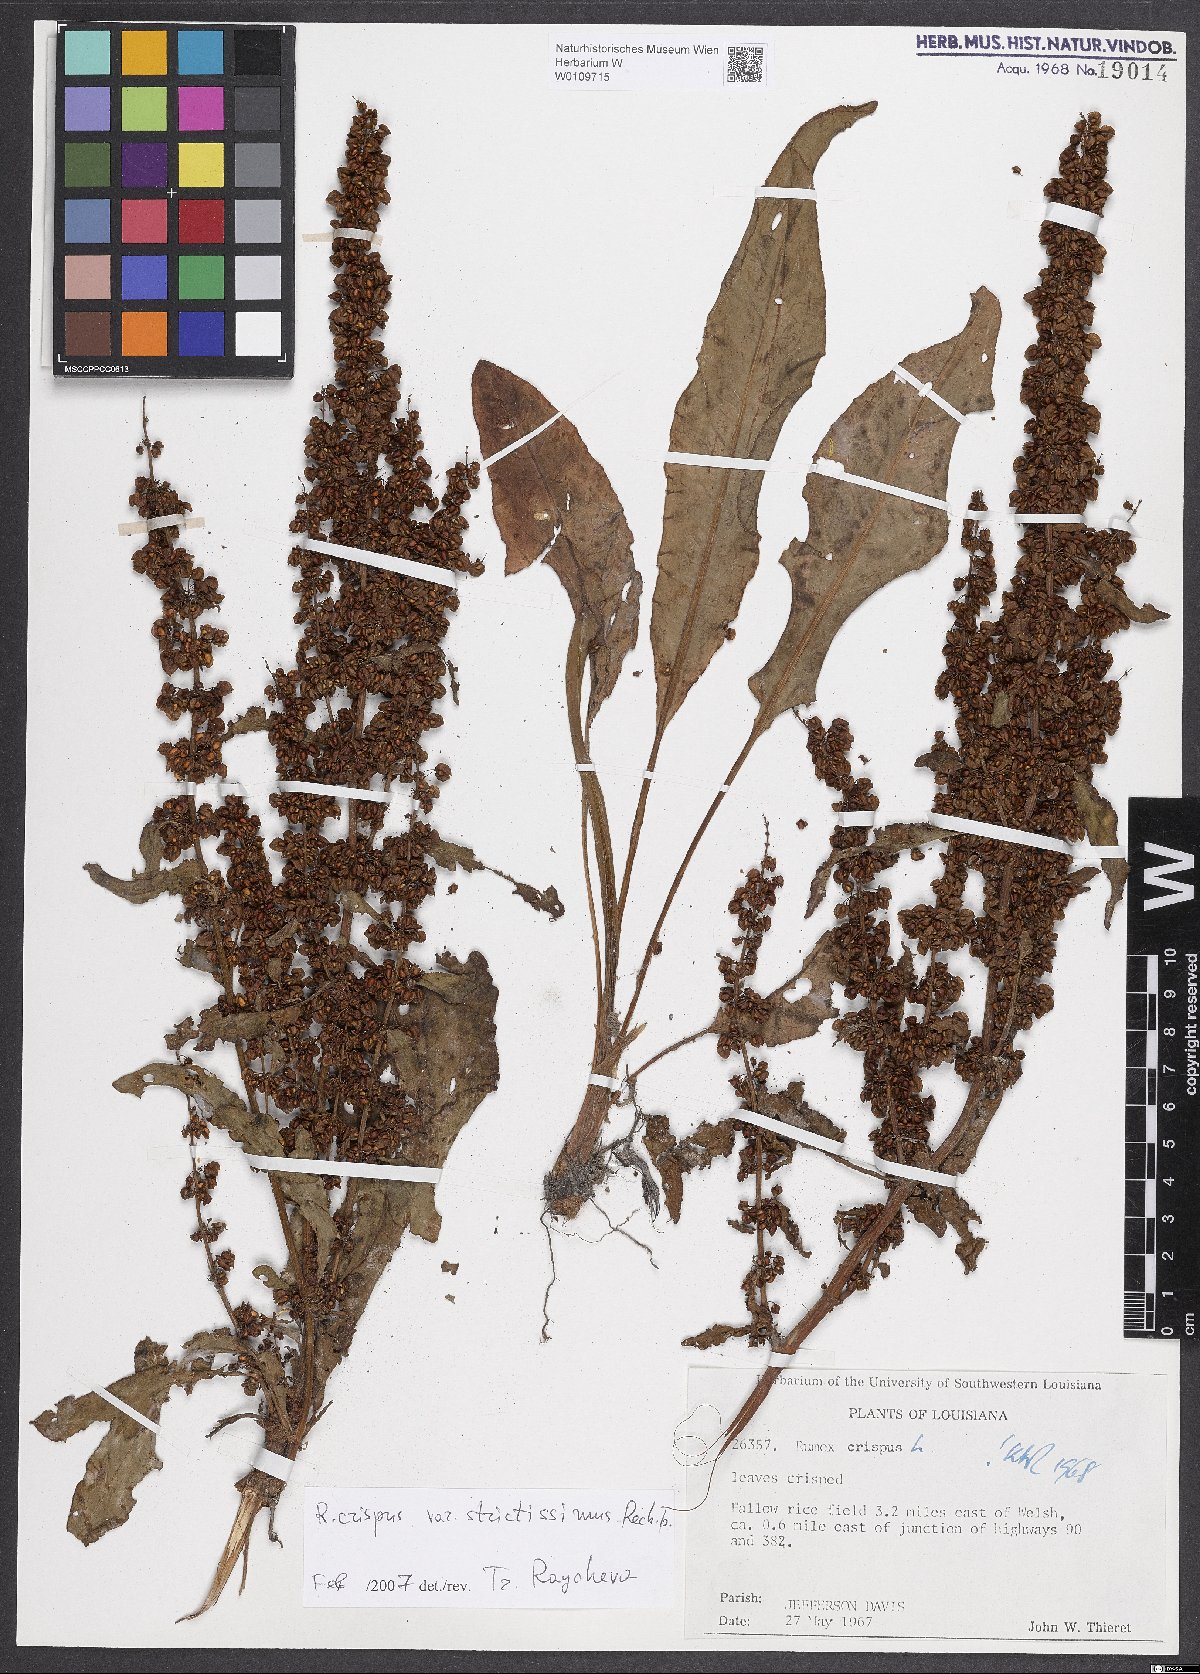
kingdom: Plantae
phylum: Tracheophyta
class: Magnoliopsida
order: Caryophyllales
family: Polygonaceae
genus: Rumex
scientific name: Rumex crispus
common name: Curled dock
